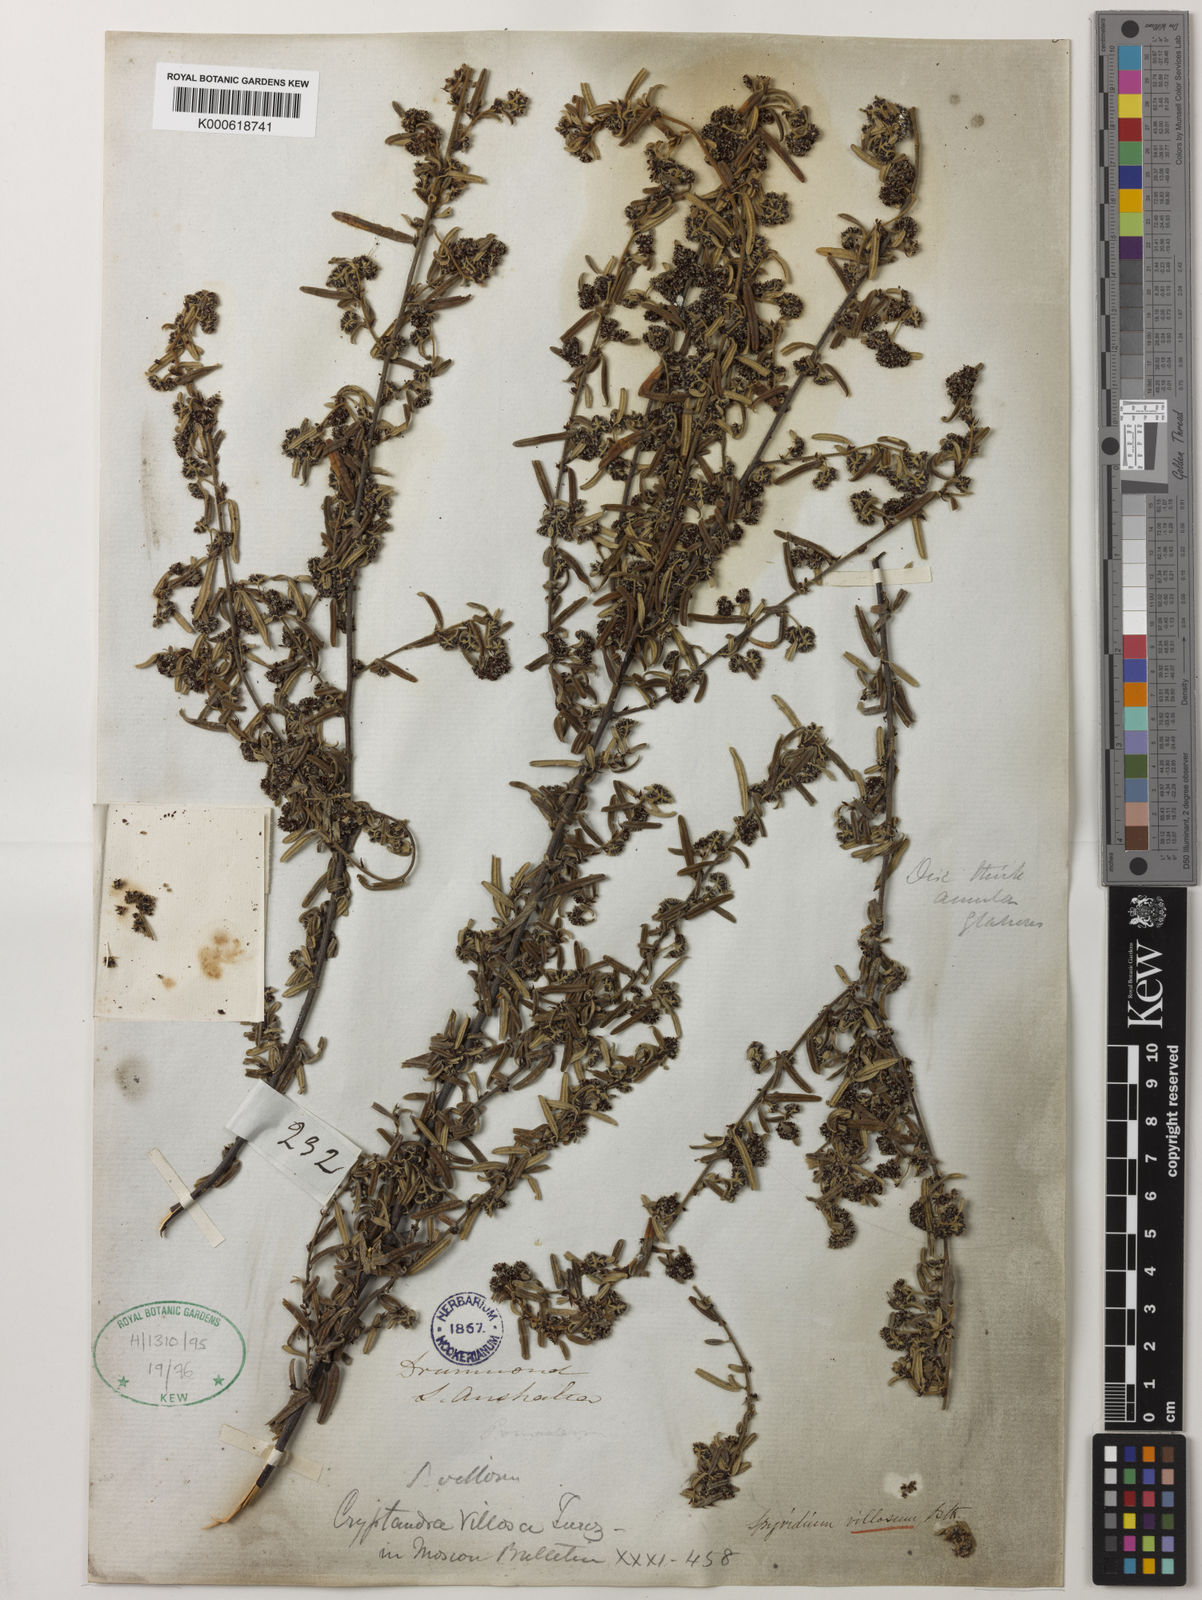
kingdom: Plantae
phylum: Tracheophyta
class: Magnoliopsida
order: Rosales
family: Rhamnaceae
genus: Spyridium
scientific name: Spyridium villosum
